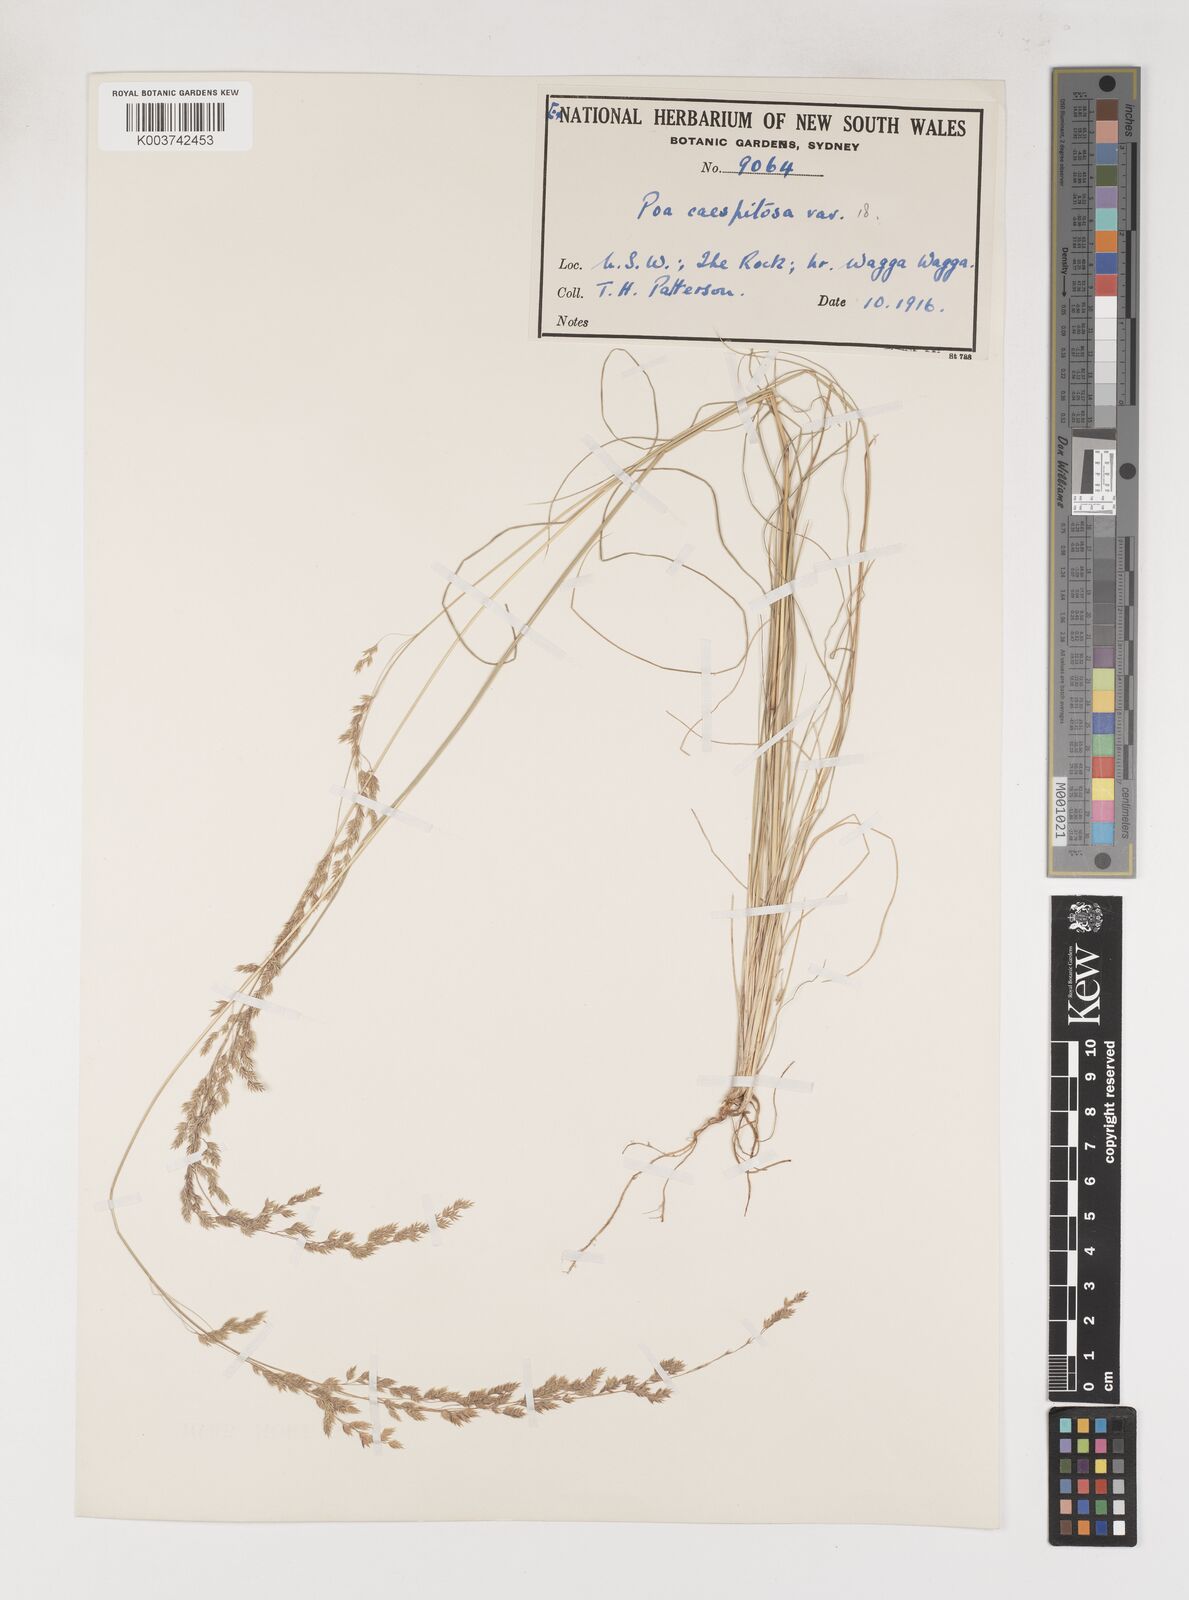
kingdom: Plantae
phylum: Tracheophyta
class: Liliopsida
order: Poales
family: Poaceae
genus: Poa
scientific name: Poa
